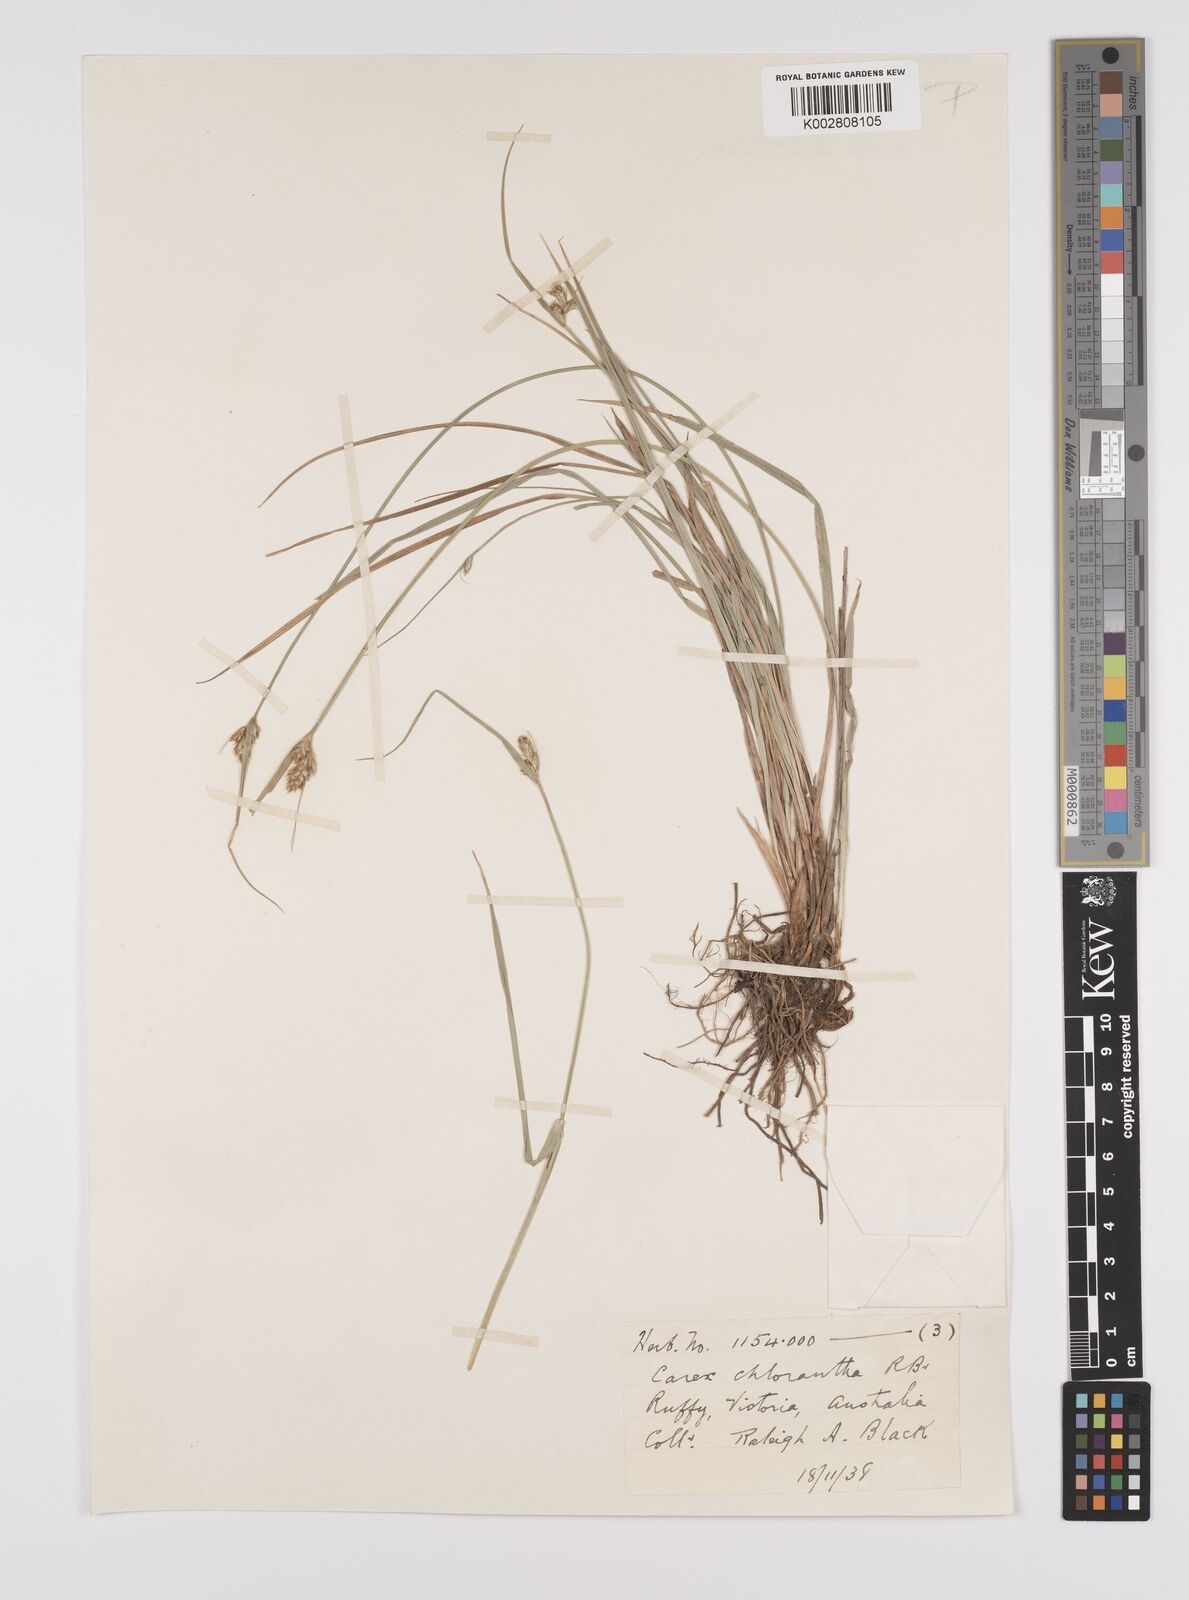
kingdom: Plantae
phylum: Tracheophyta
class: Liliopsida
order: Poales
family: Cyperaceae
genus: Carex
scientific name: Carex inversa
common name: Knob sedge
